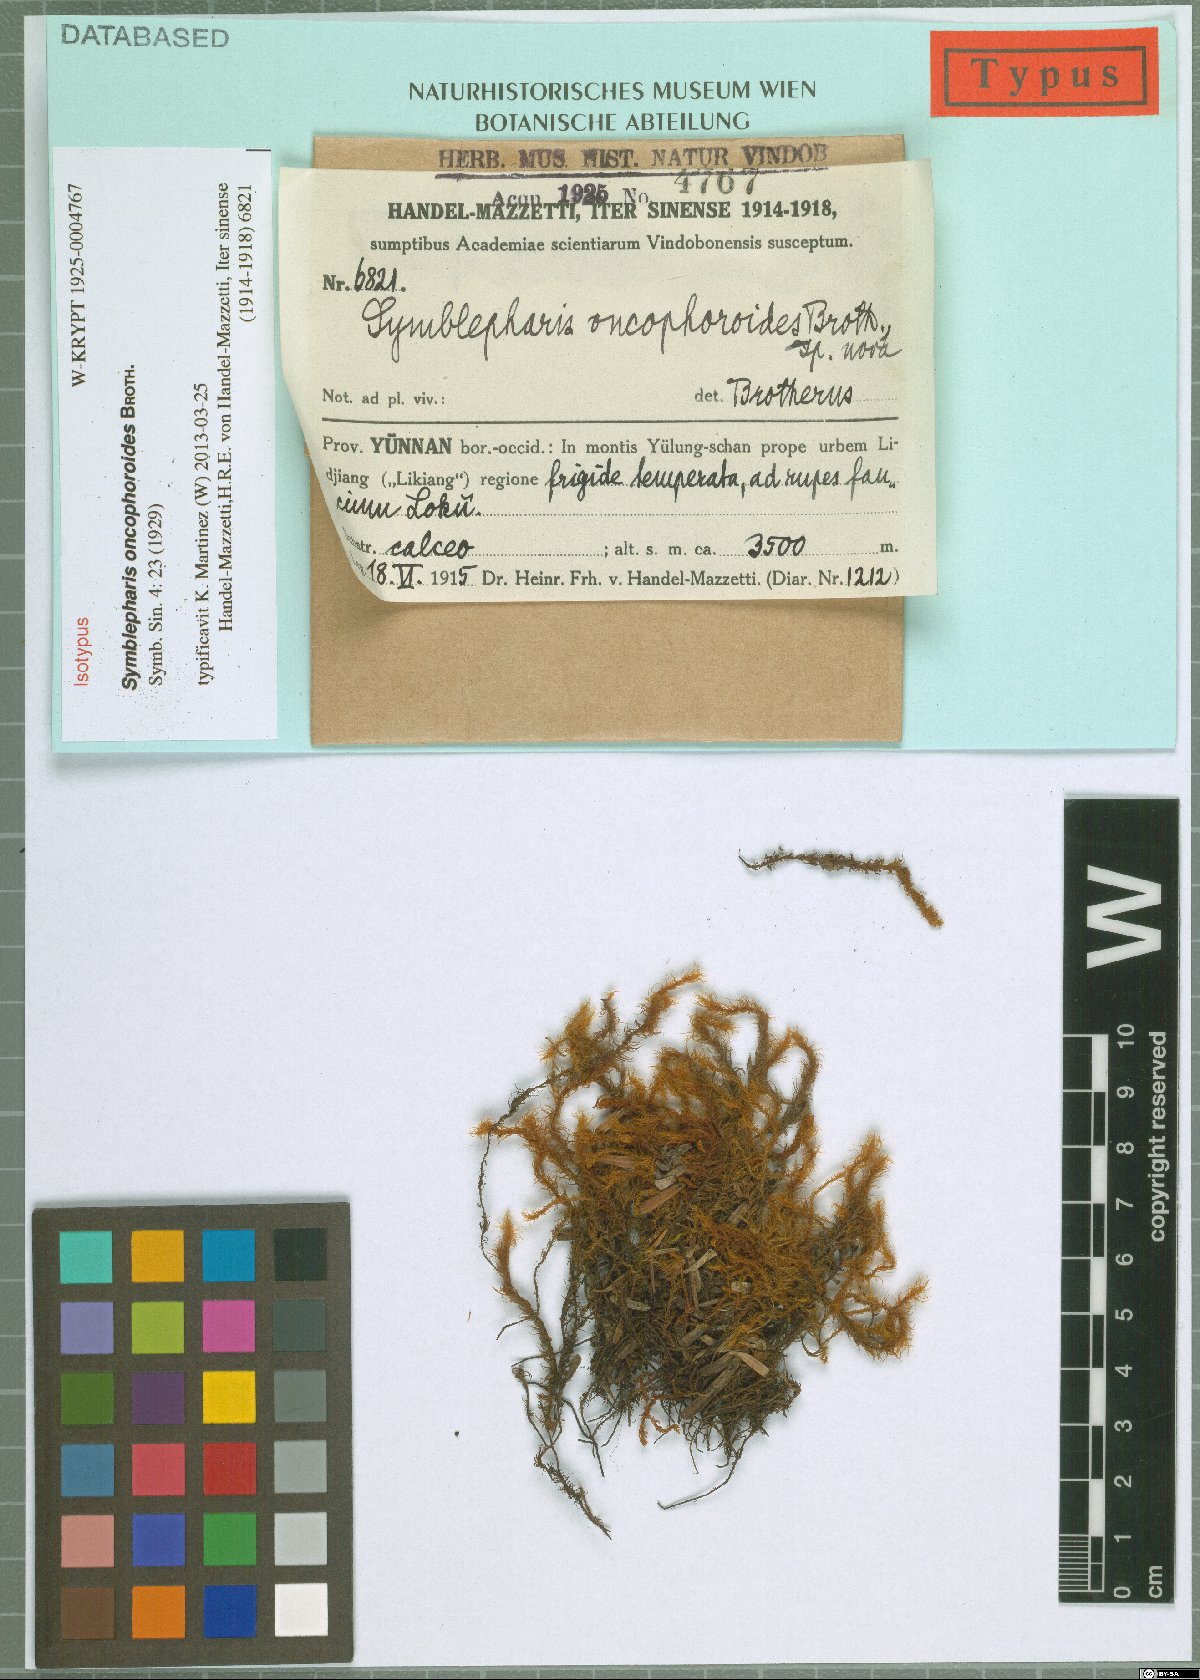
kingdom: Plantae
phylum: Bryophyta
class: Bryopsida
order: Dicranales
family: Rhabdoweisiaceae
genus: Symblepharis
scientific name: Symblepharis oncophoroides
